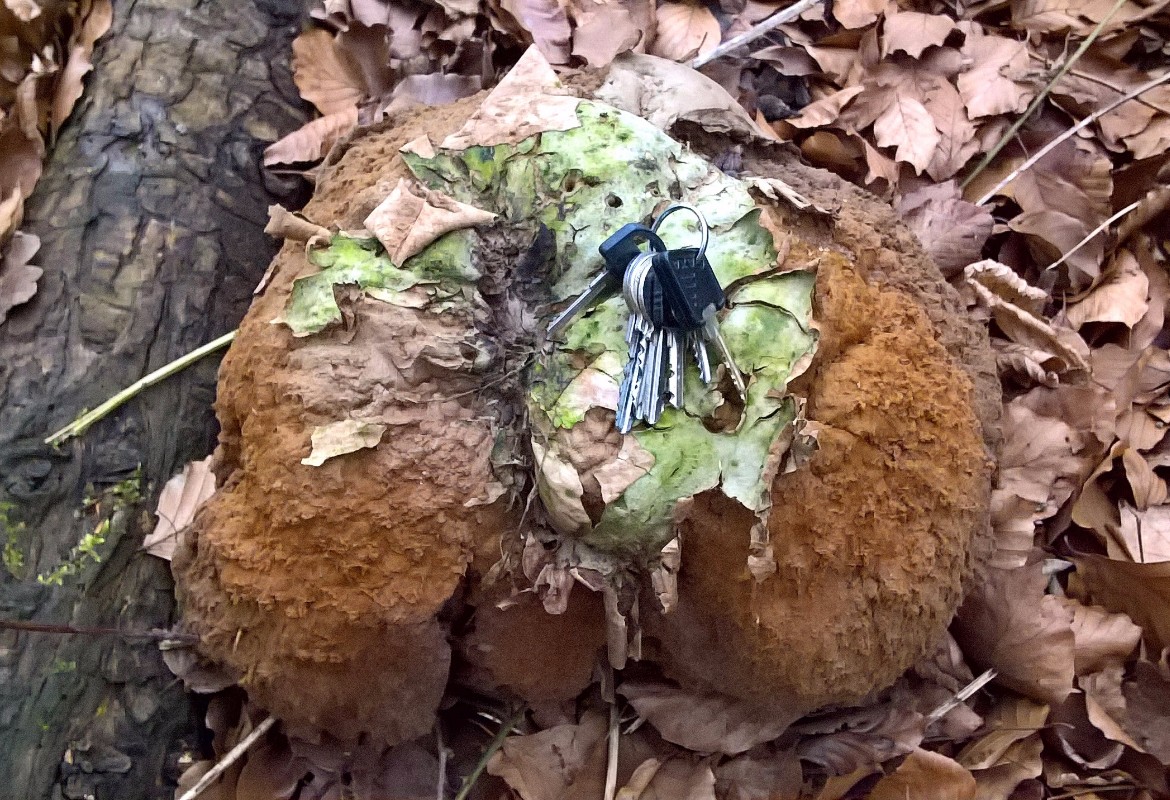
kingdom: Fungi
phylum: Basidiomycota
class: Agaricomycetes
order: Agaricales
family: Lycoperdaceae
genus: Calvatia
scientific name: Calvatia gigantea
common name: kæmpestøvbold
